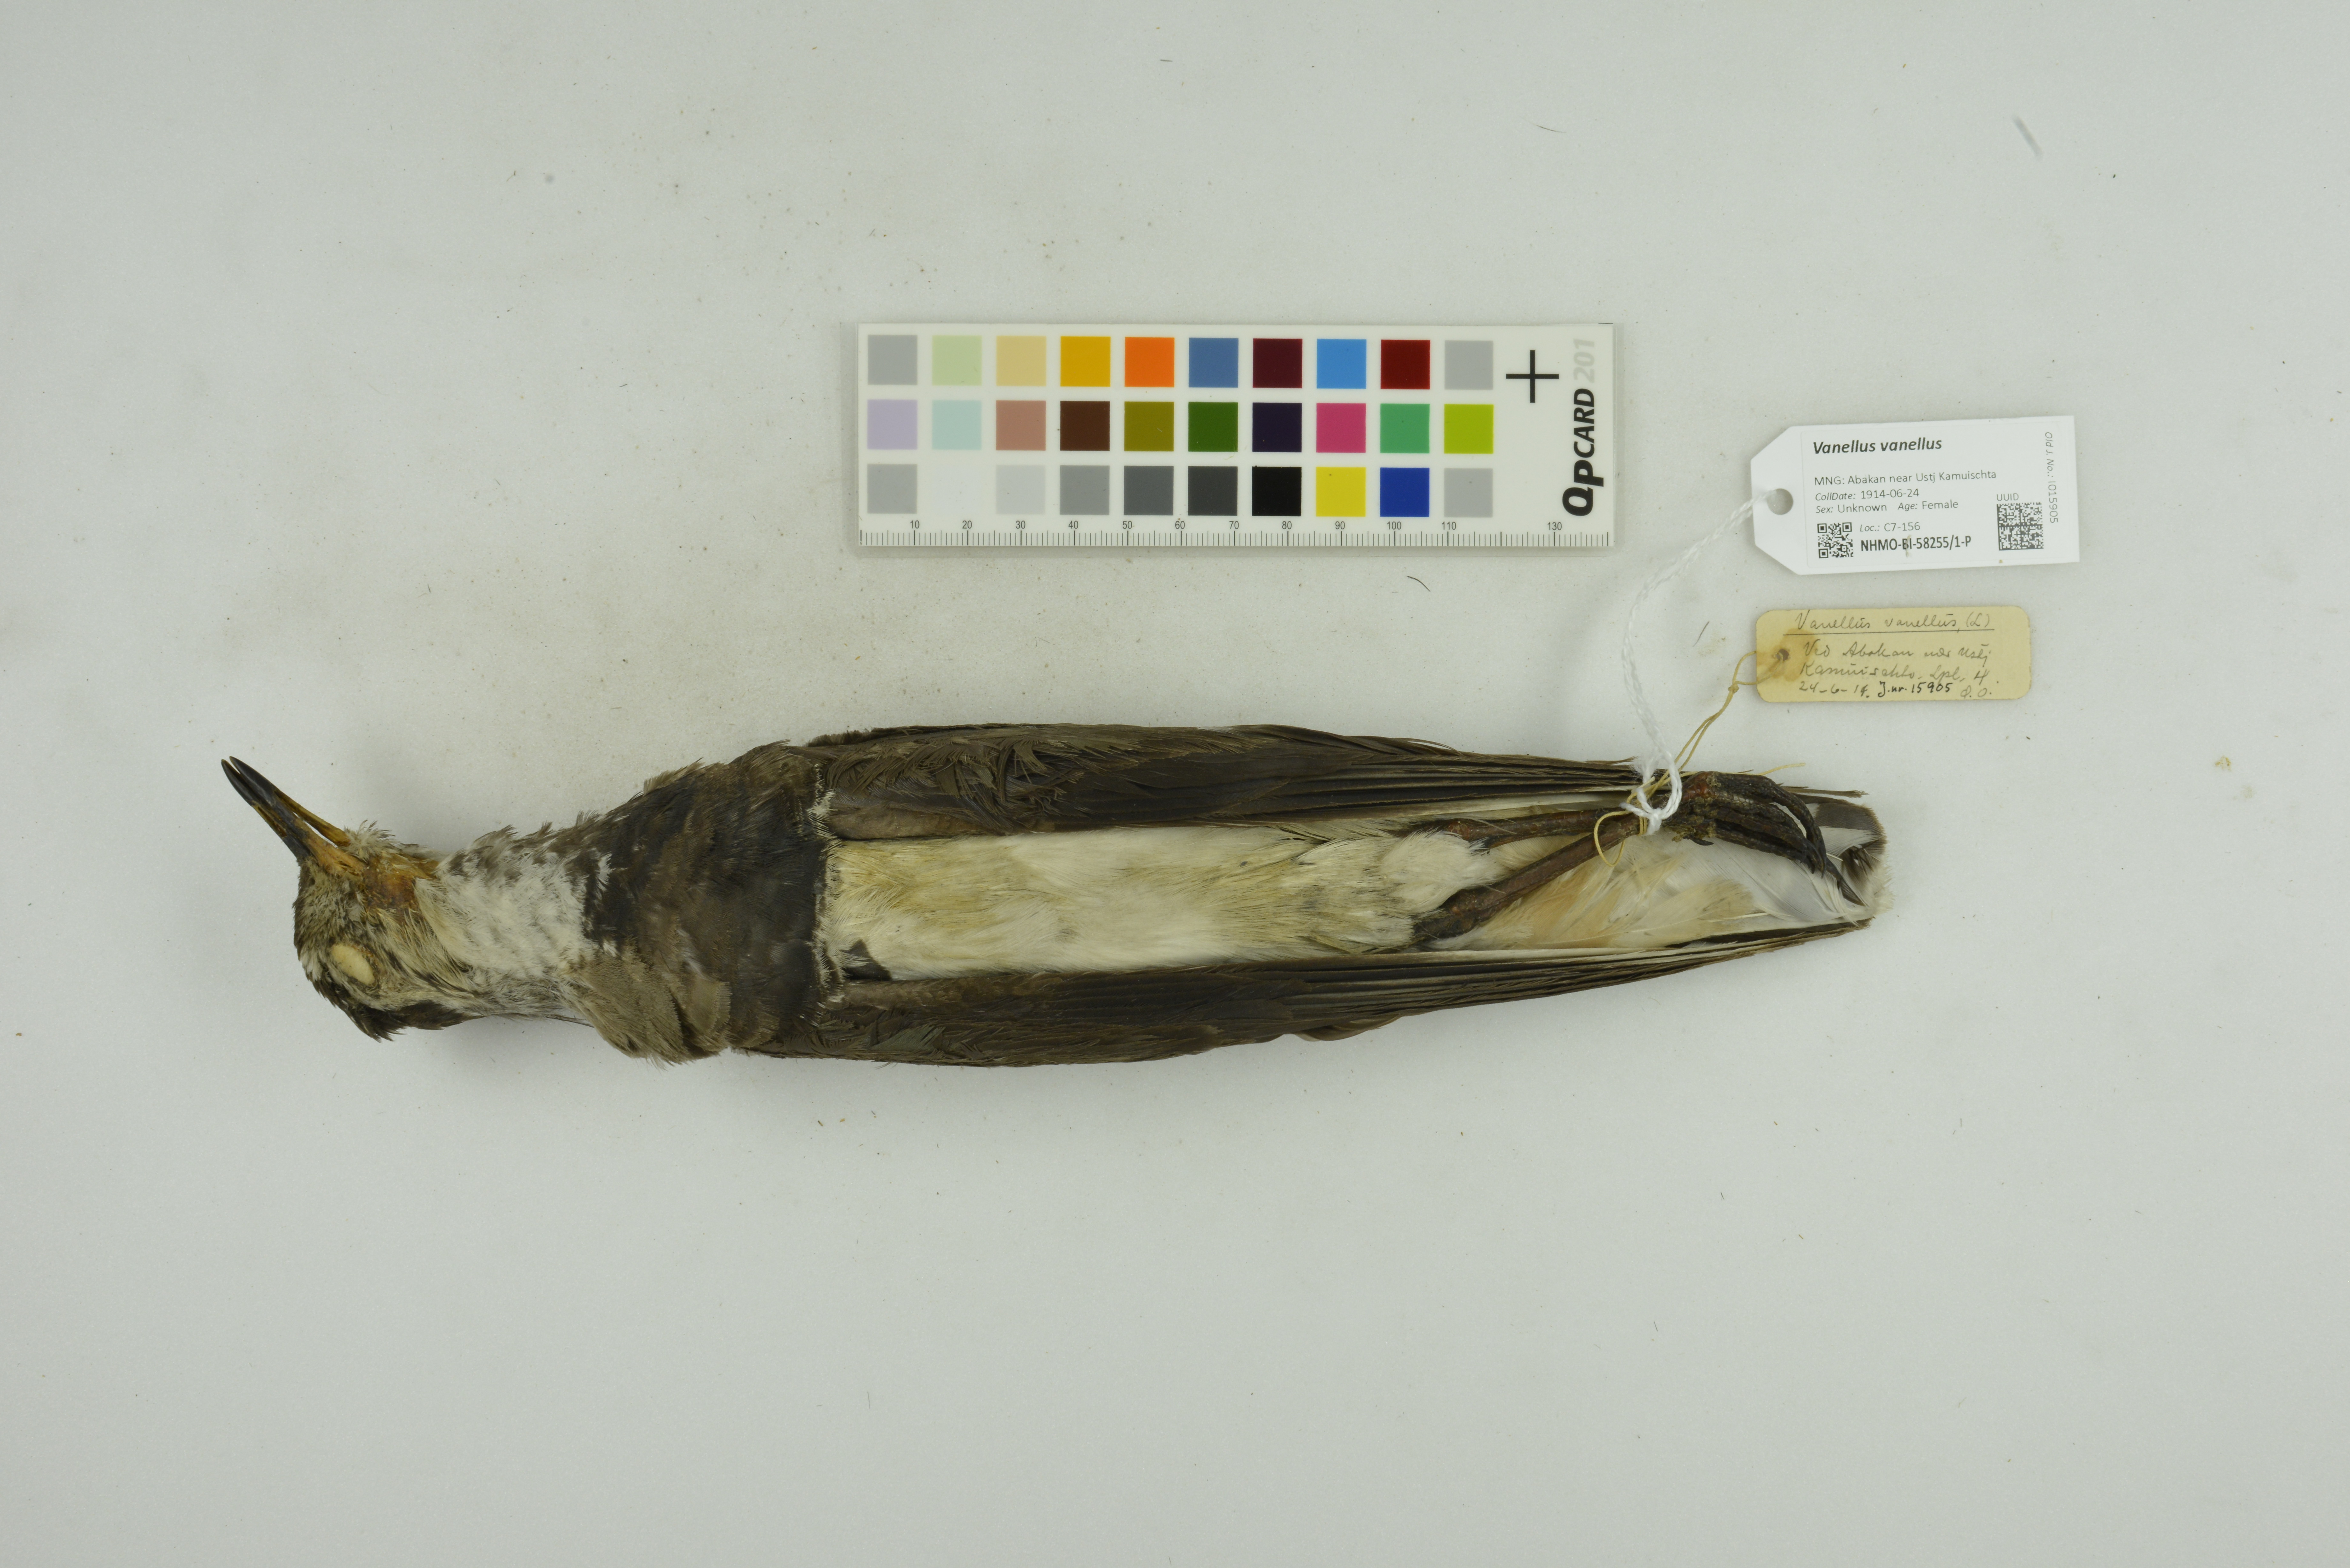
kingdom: Animalia
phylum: Chordata
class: Aves
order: Charadriiformes
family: Charadriidae
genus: Vanellus
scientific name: Vanellus vanellus
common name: Northern lapwing
